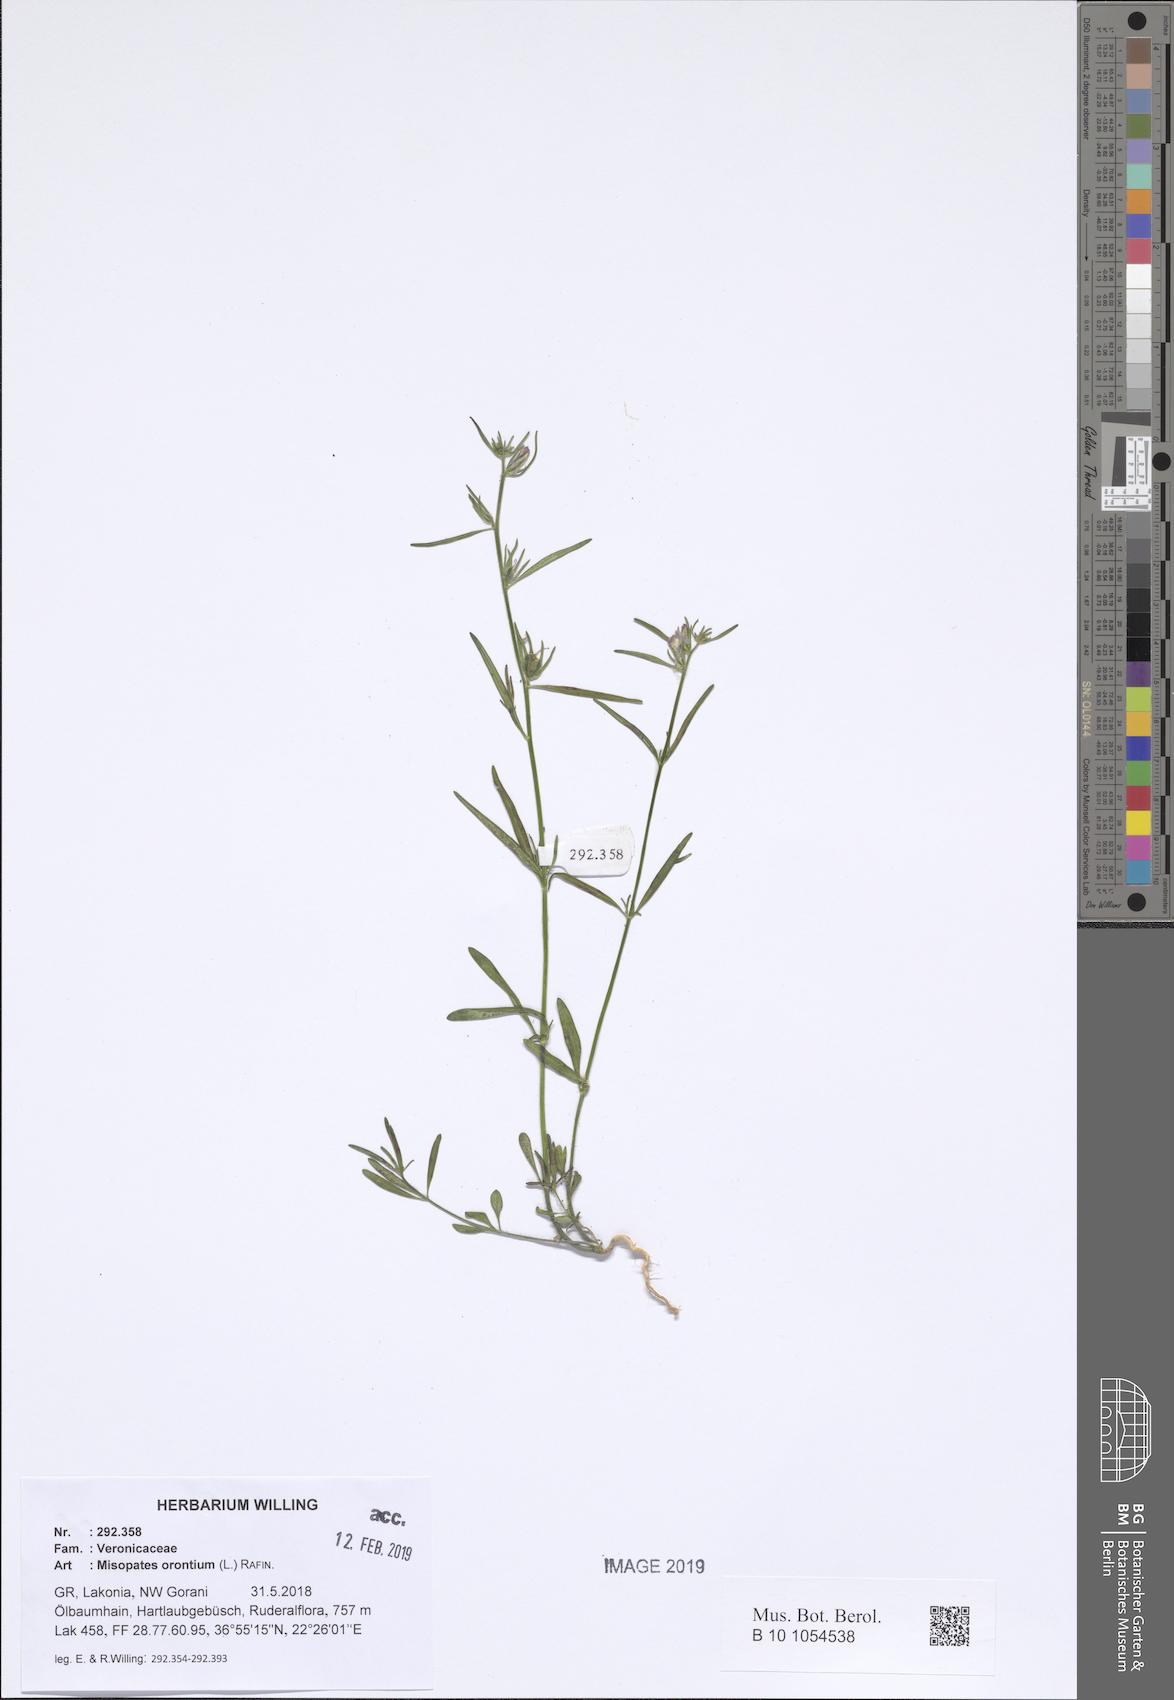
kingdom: Plantae
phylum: Tracheophyta
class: Magnoliopsida
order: Lamiales
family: Plantaginaceae
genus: Misopates
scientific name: Misopates orontium
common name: Weasel's-snout
